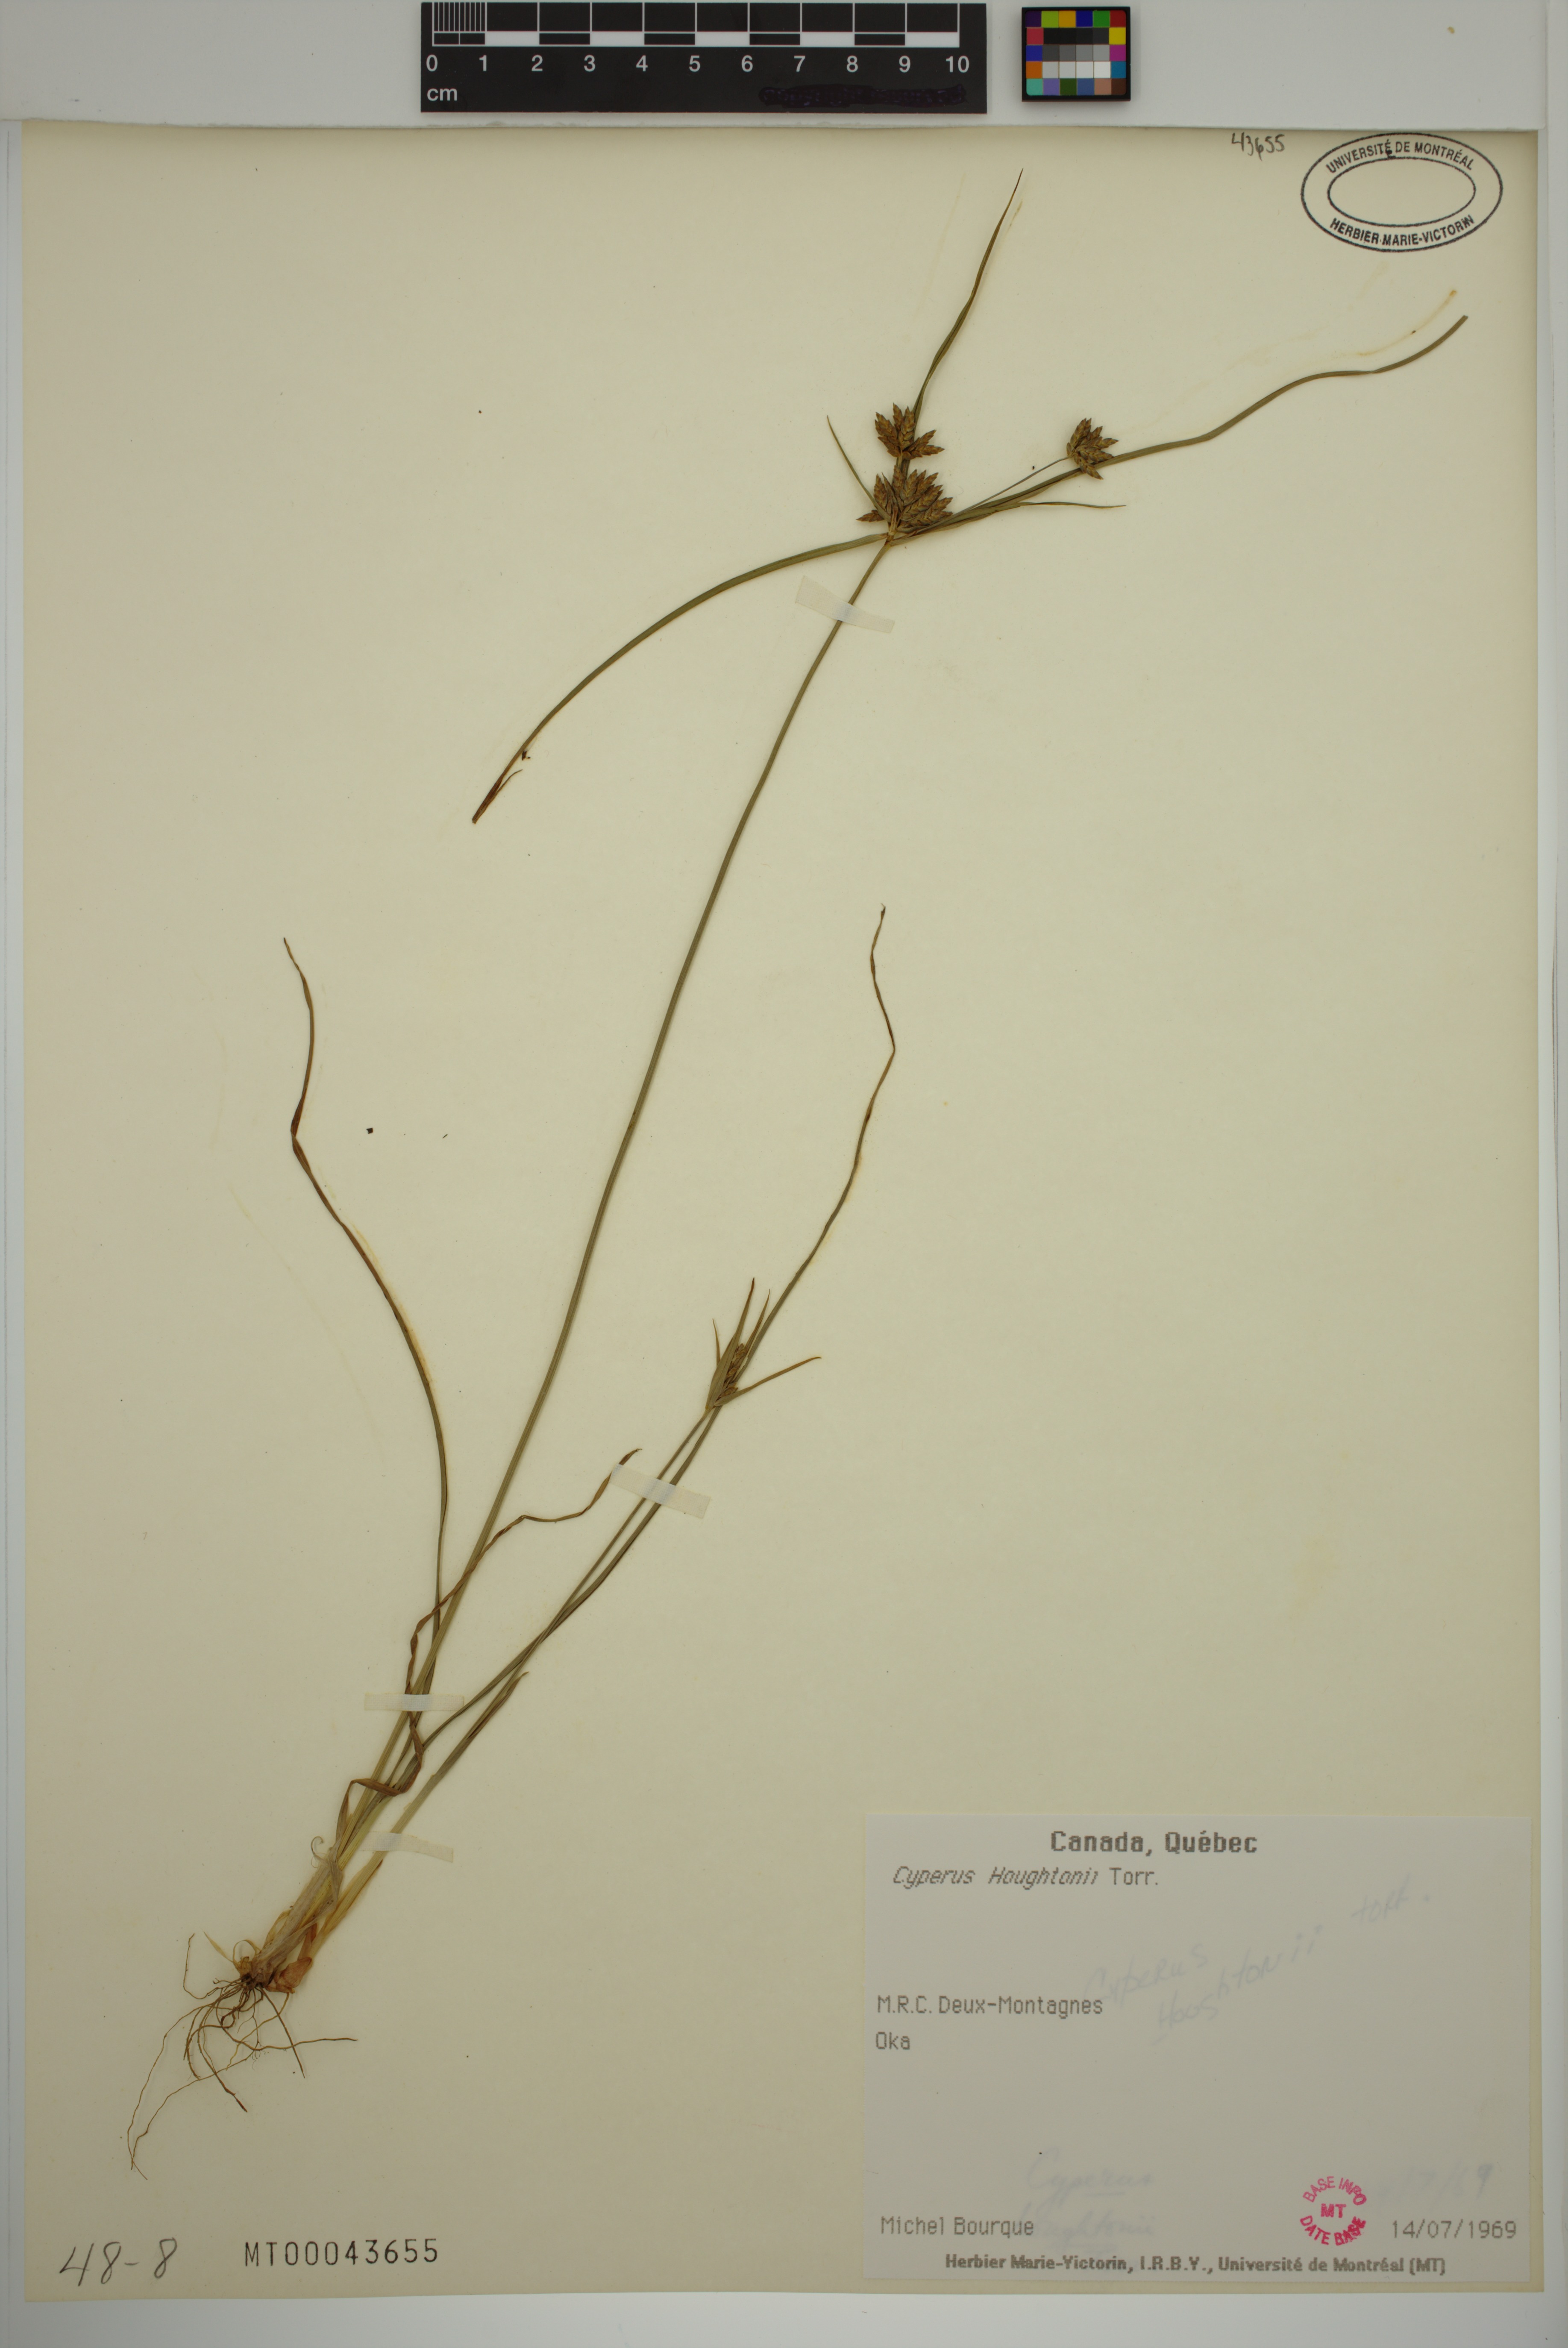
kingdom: Plantae
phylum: Tracheophyta
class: Liliopsida
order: Poales
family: Cyperaceae
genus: Cyperus
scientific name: Cyperus houghtonii
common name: Houghton's cyperus
